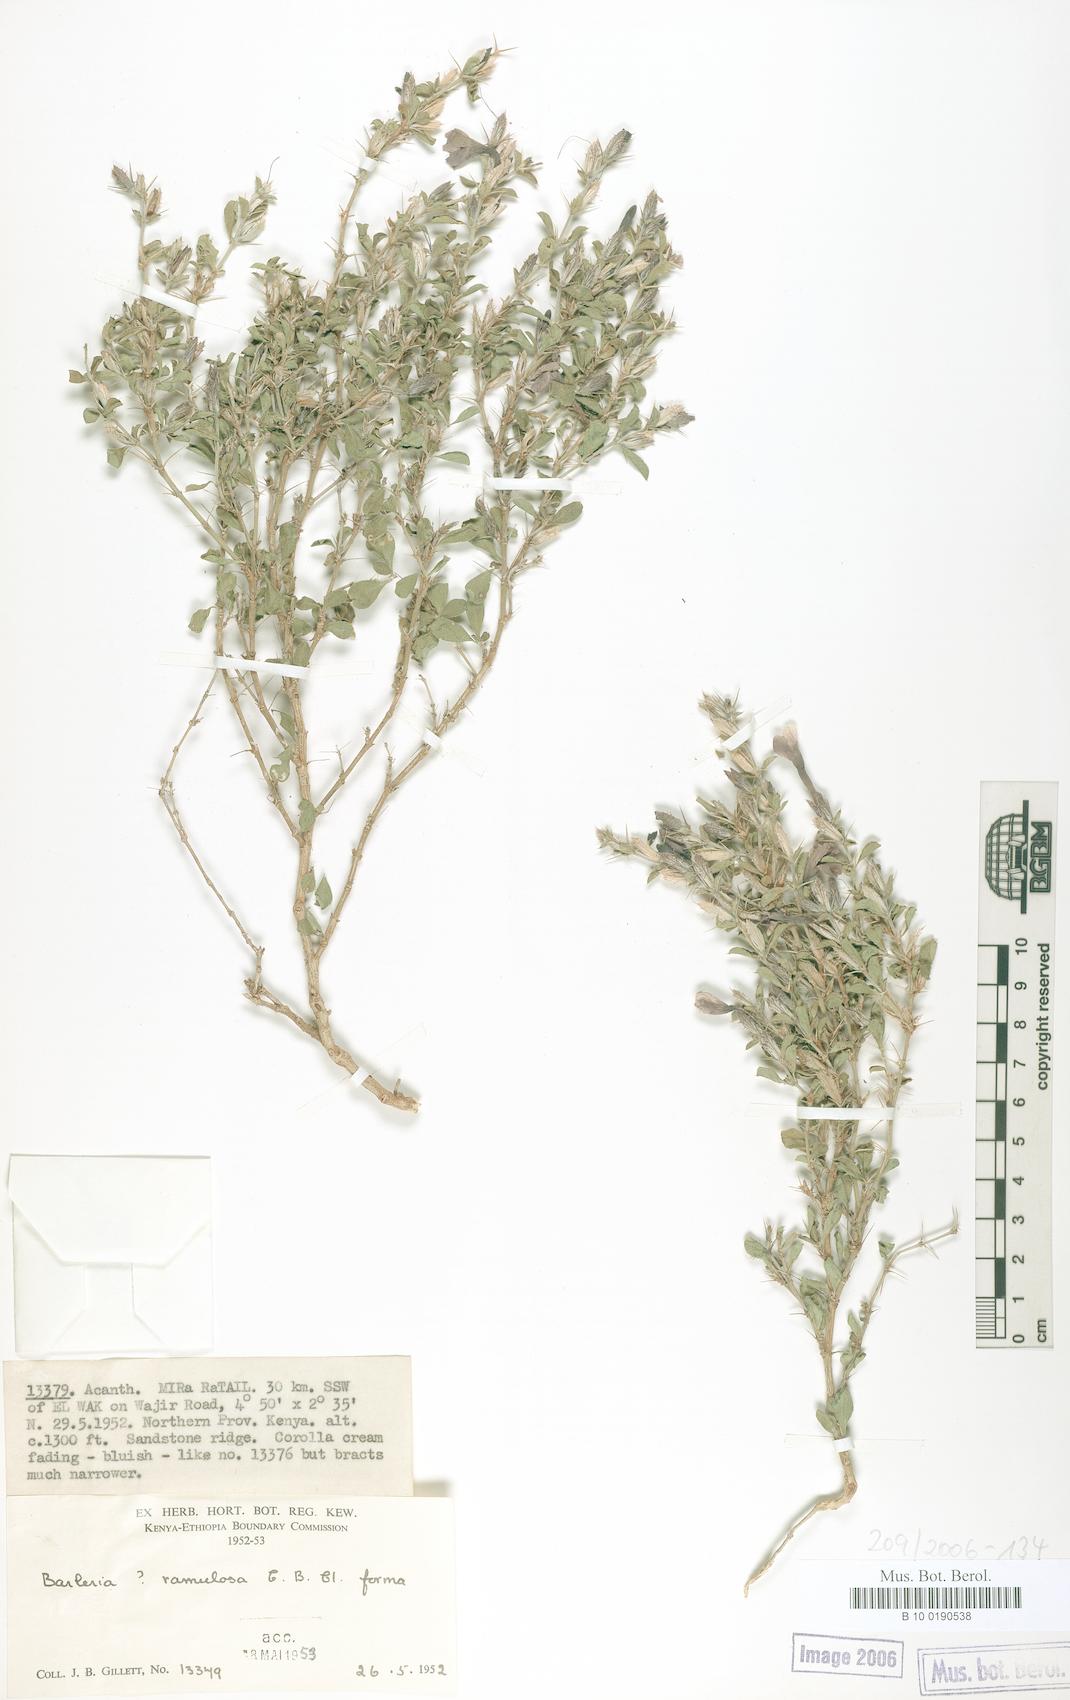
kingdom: Plantae
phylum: Tracheophyta
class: Magnoliopsida
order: Lamiales
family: Acanthaceae
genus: Barleria
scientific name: Barleria ramulosa
